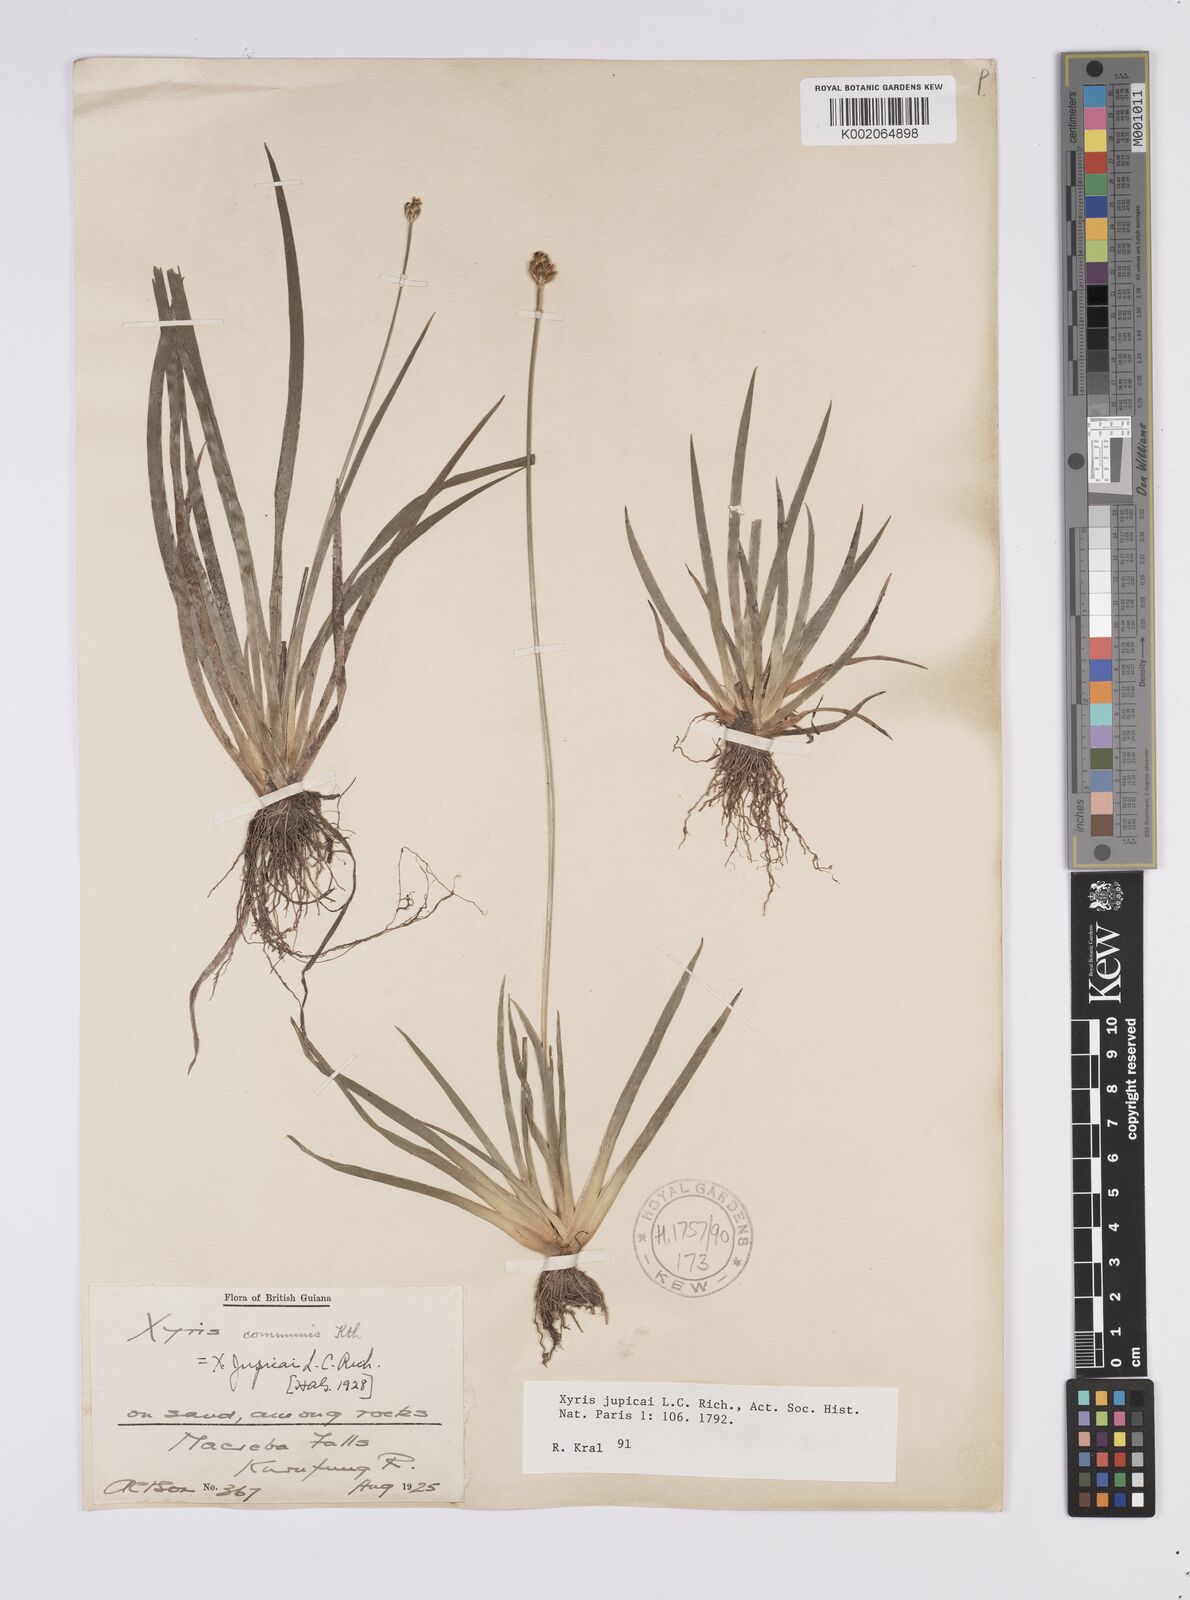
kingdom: Plantae
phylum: Tracheophyta
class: Liliopsida
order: Poales
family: Xyridaceae
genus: Xyris
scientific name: Xyris jupicai
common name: Richard's yelloweyed grass
